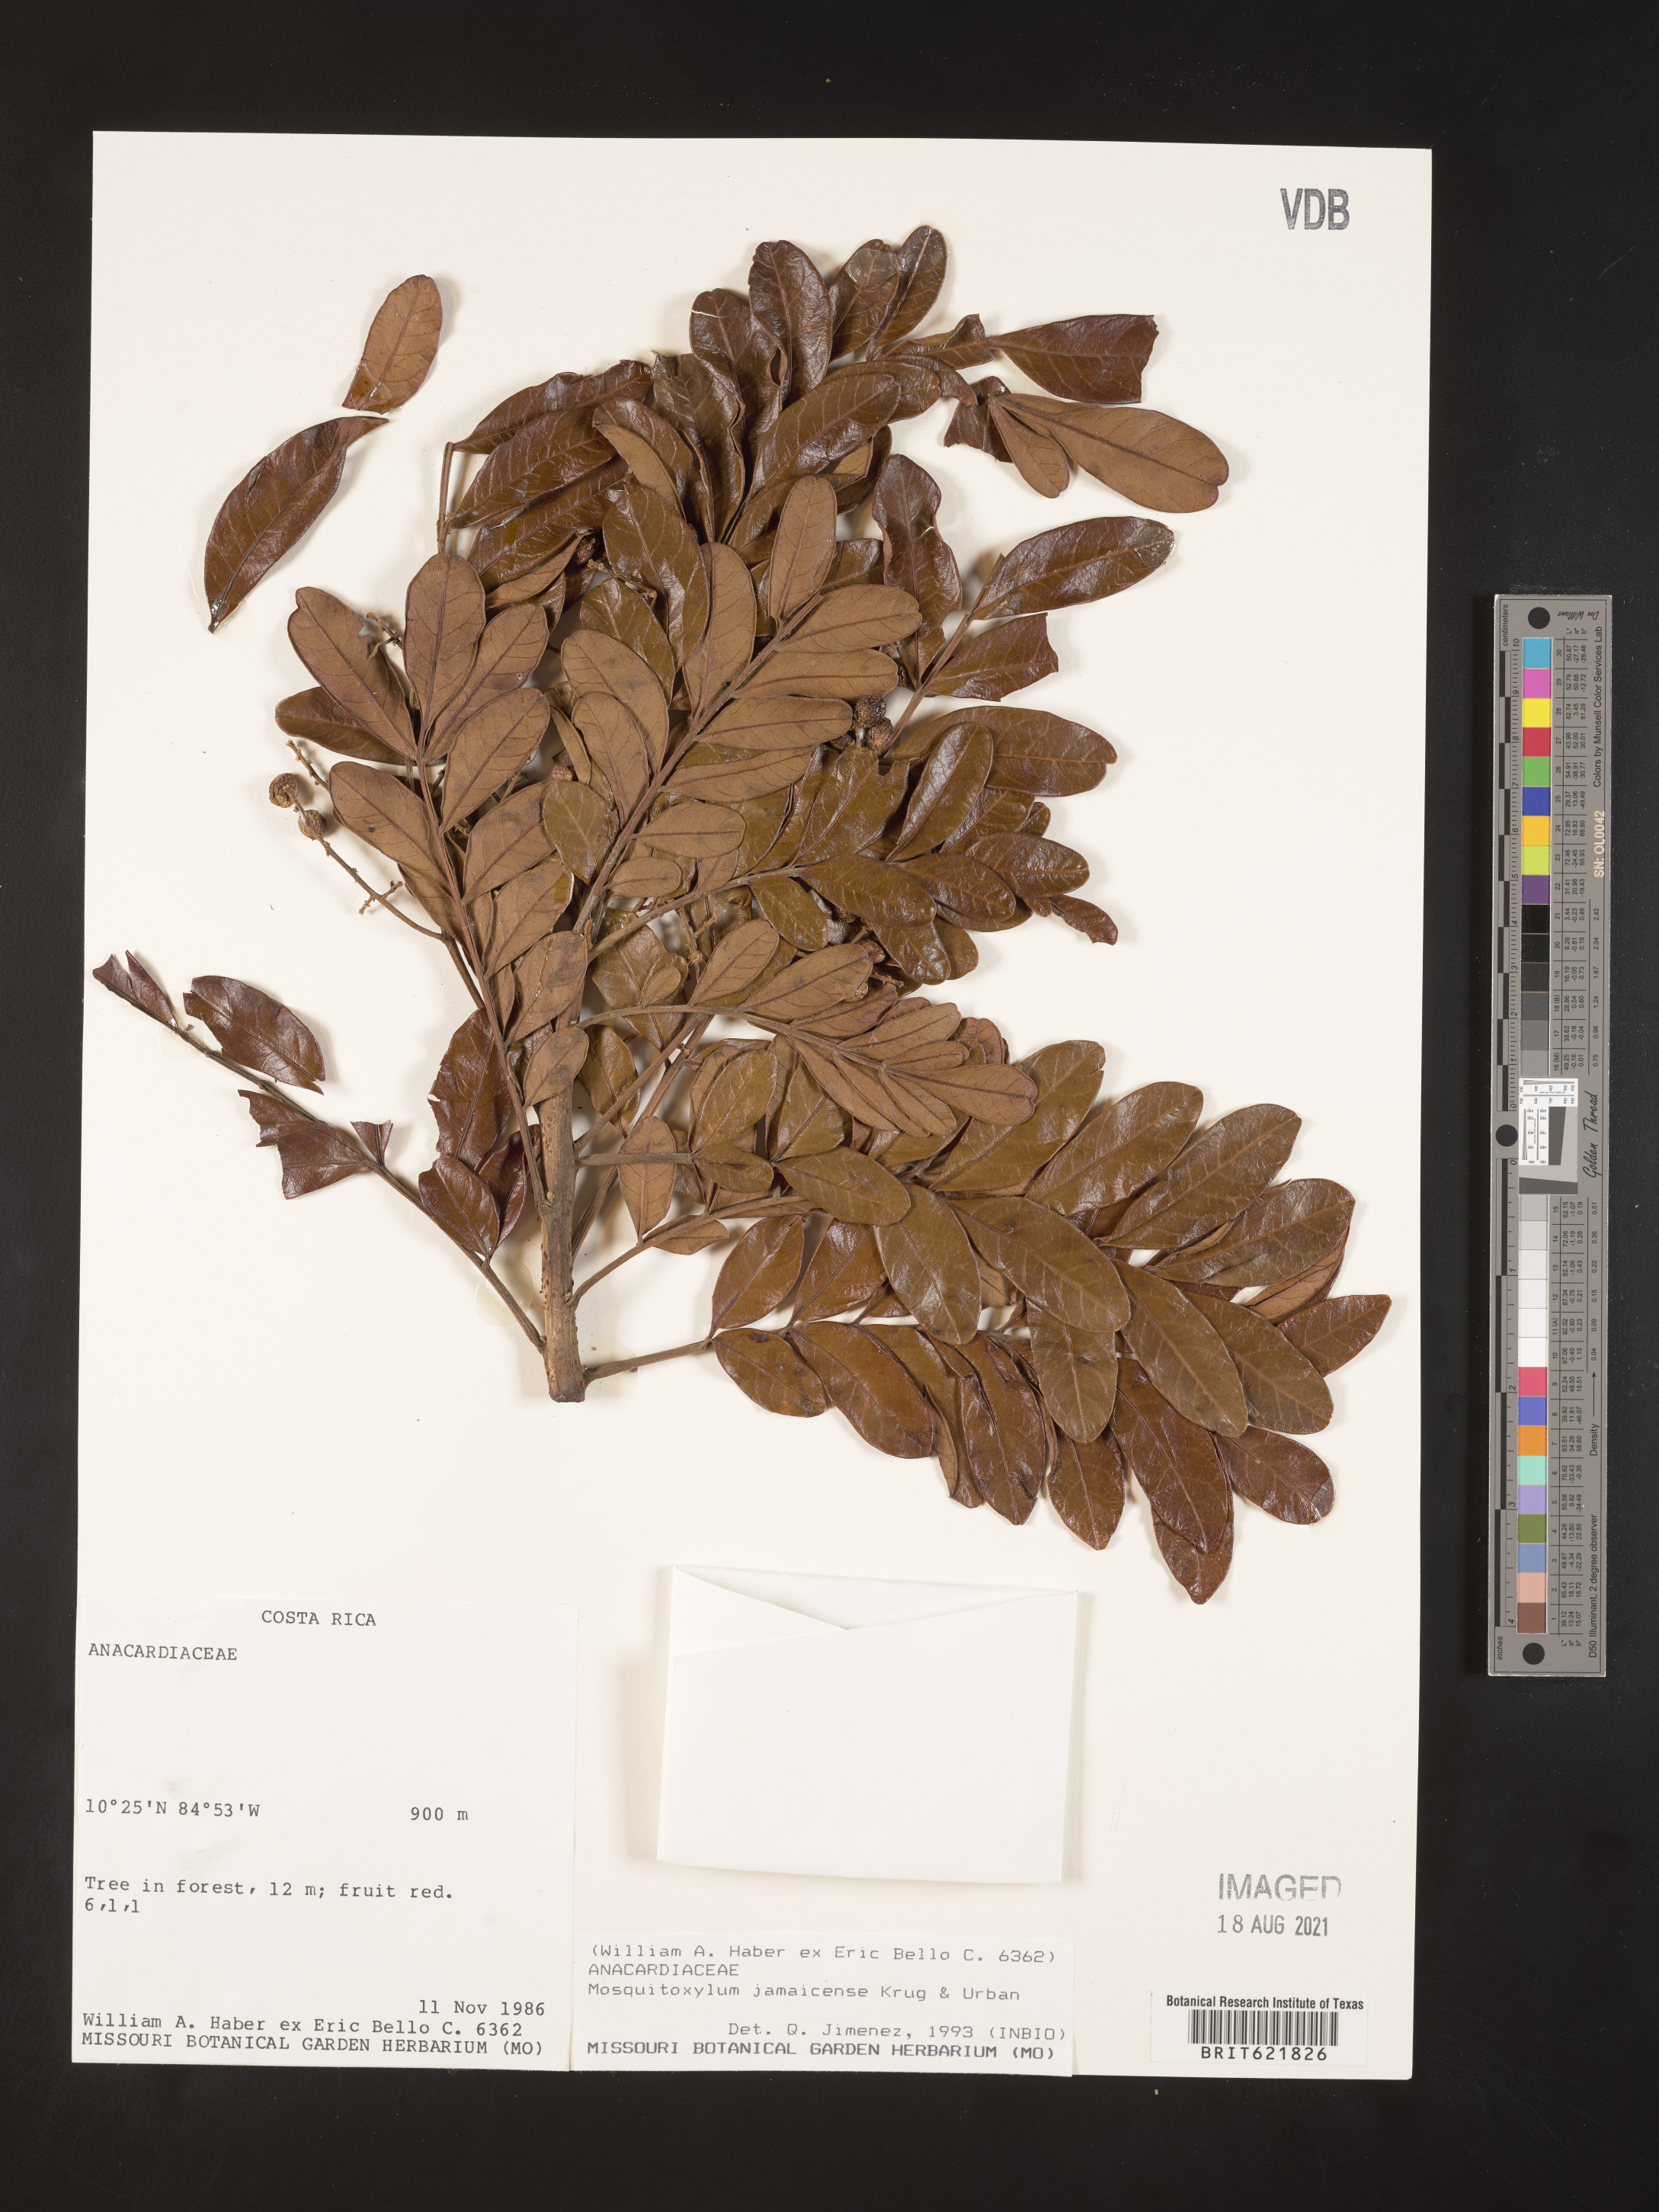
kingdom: Plantae
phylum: Tracheophyta
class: Magnoliopsida
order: Sapindales
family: Anacardiaceae
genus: Mosquitoxylum
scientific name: Mosquitoxylum jamaicense
